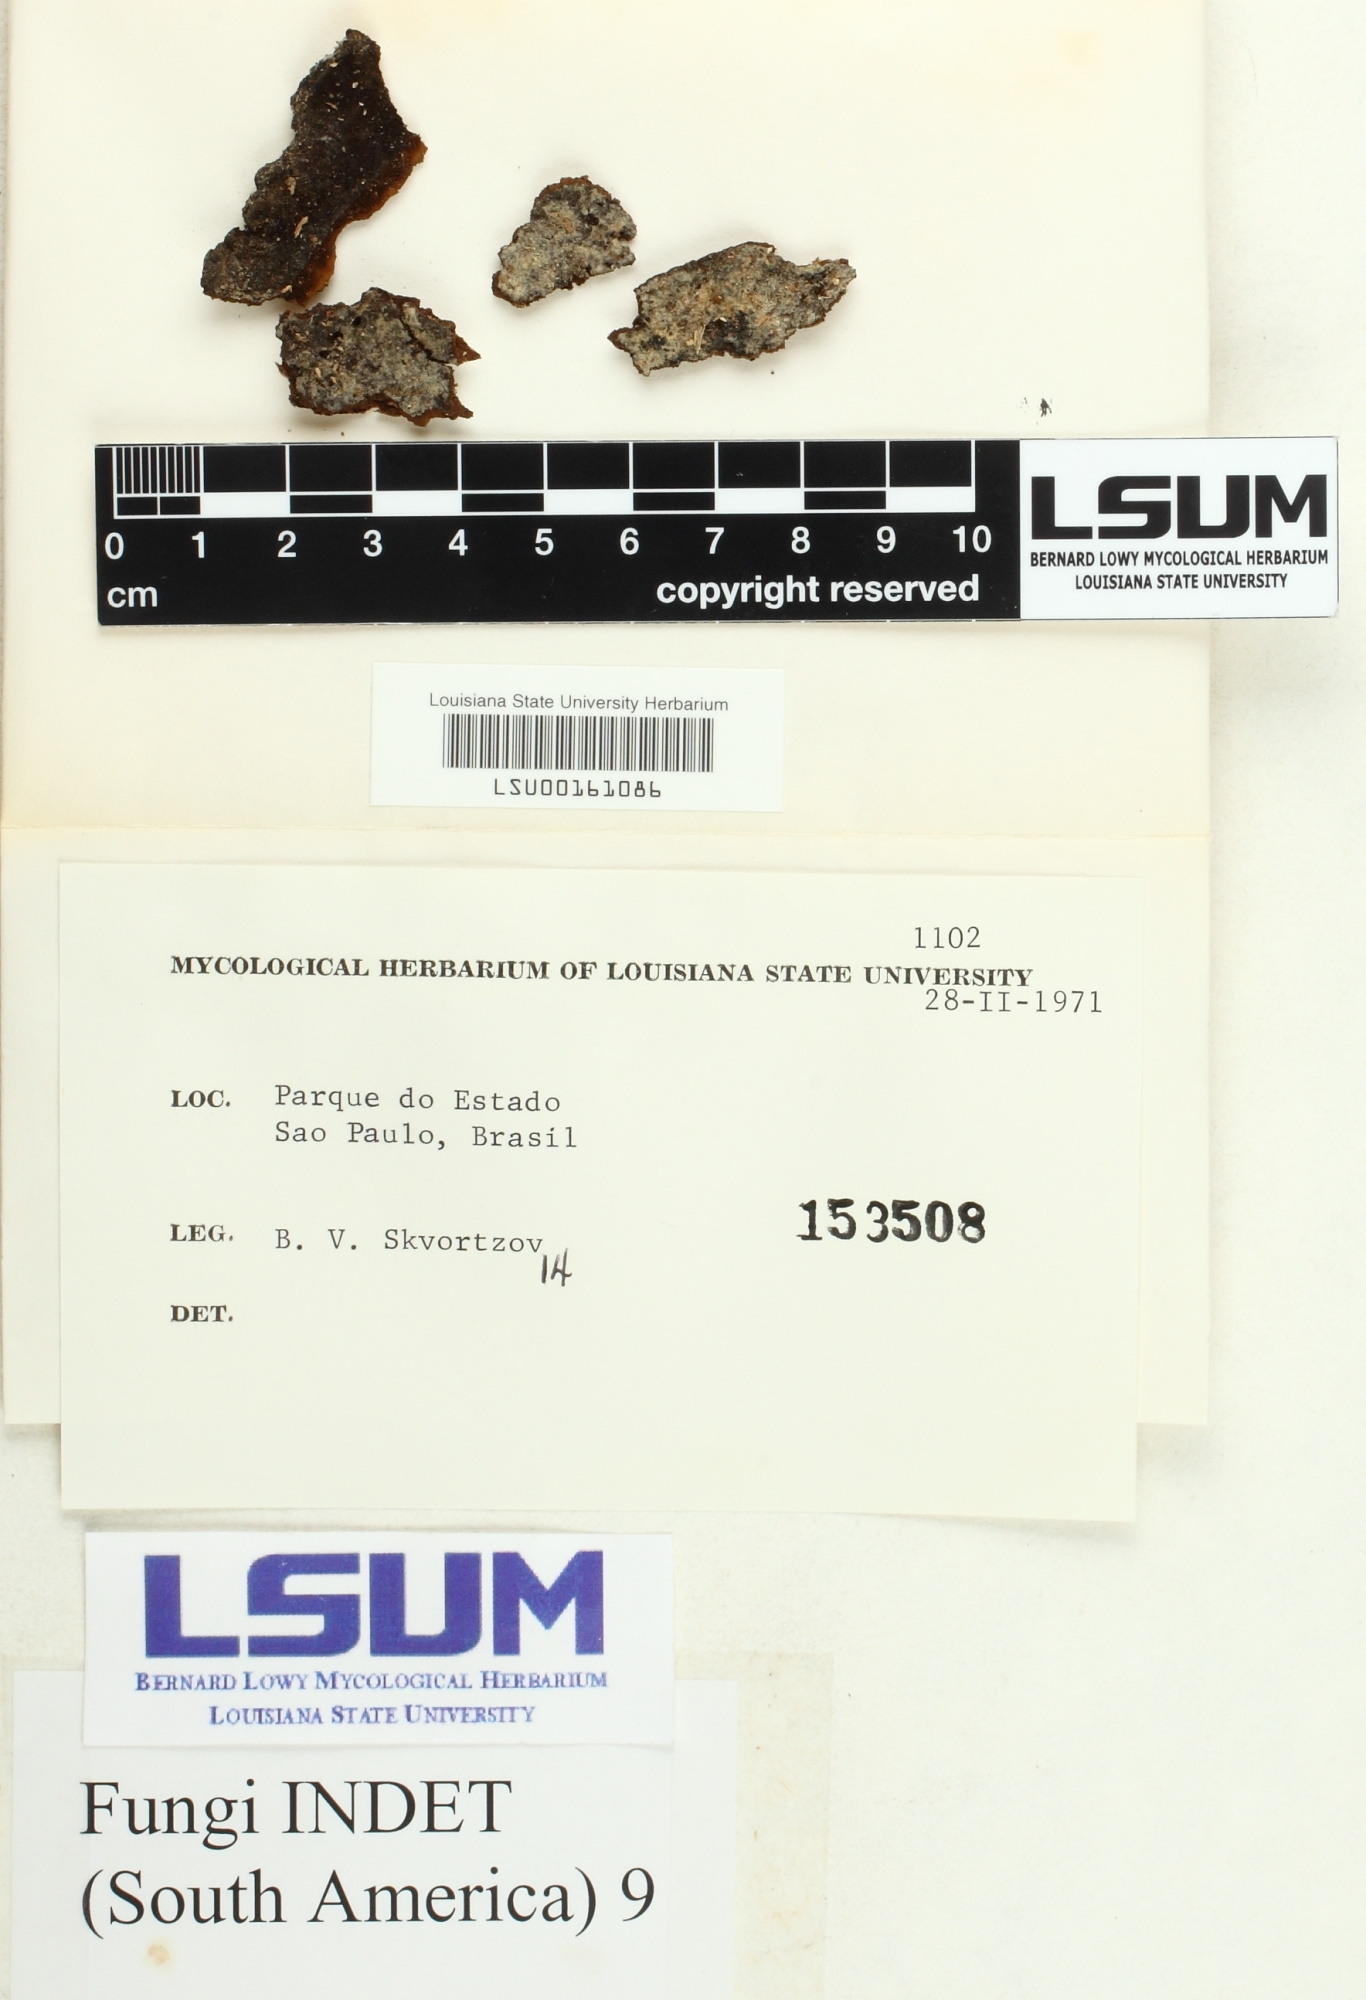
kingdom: Fungi
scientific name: Fungi
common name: Fungi
